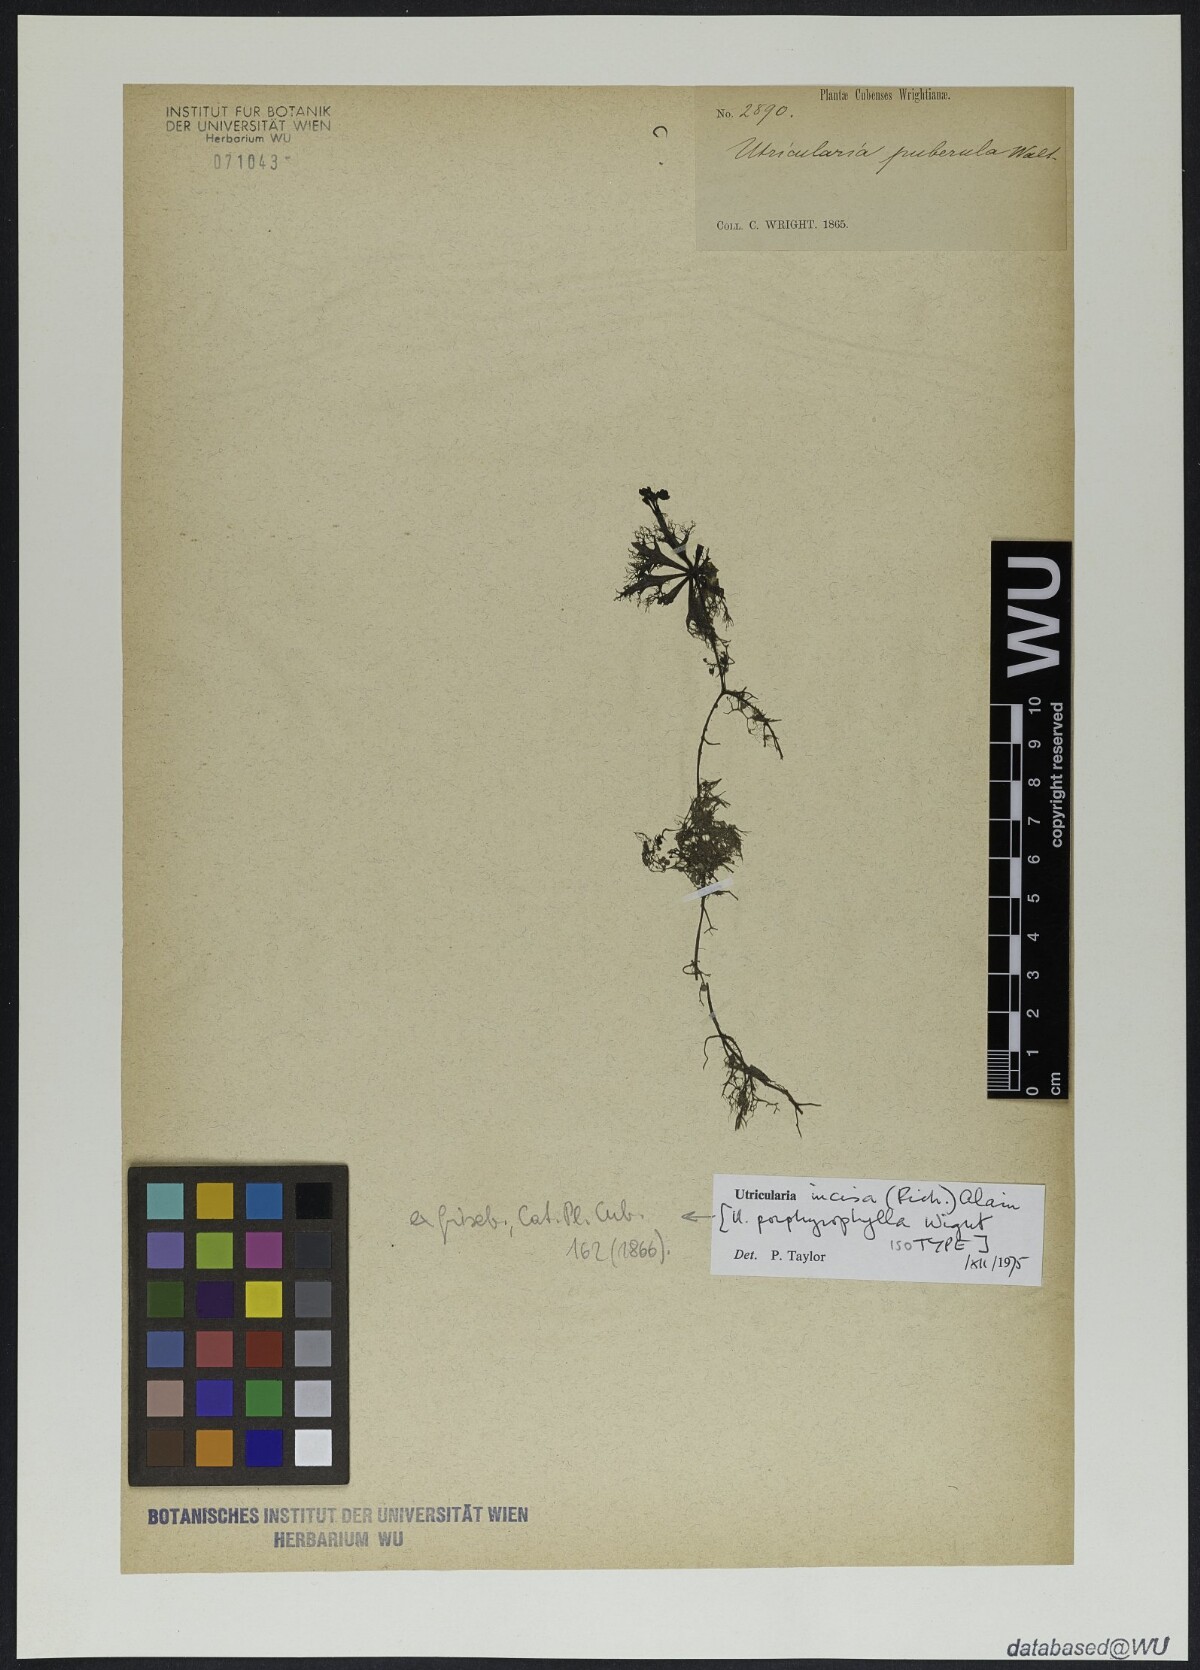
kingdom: Plantae
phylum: Tracheophyta
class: Magnoliopsida
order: Lamiales
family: Lentibulariaceae
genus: Utricularia
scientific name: Utricularia incisa
